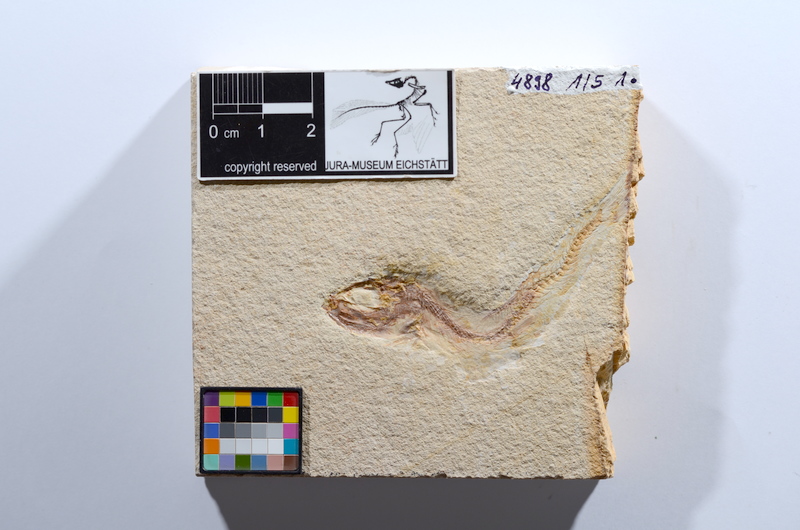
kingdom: Animalia
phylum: Chordata
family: Ascalaboidae
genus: Tharsis
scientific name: Tharsis dubius
